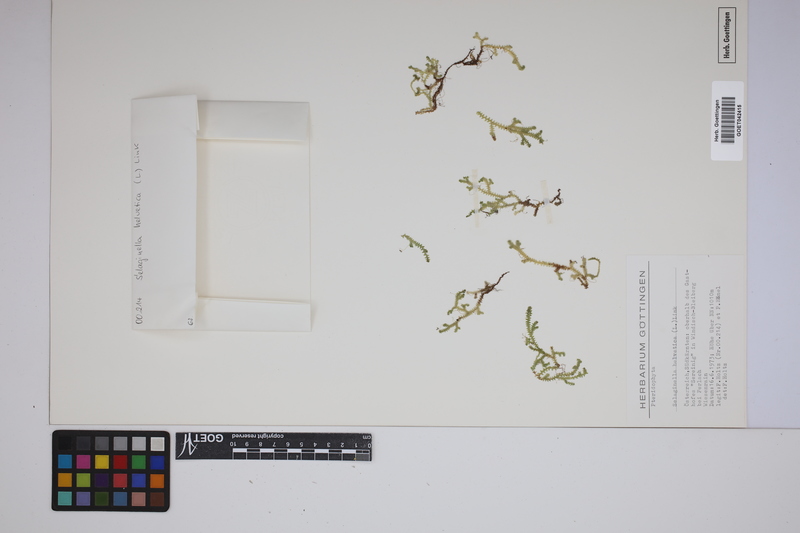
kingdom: Plantae
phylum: Tracheophyta
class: Lycopodiopsida
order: Selaginellales
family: Selaginellaceae
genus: Selaginella
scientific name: Selaginella helvetica
